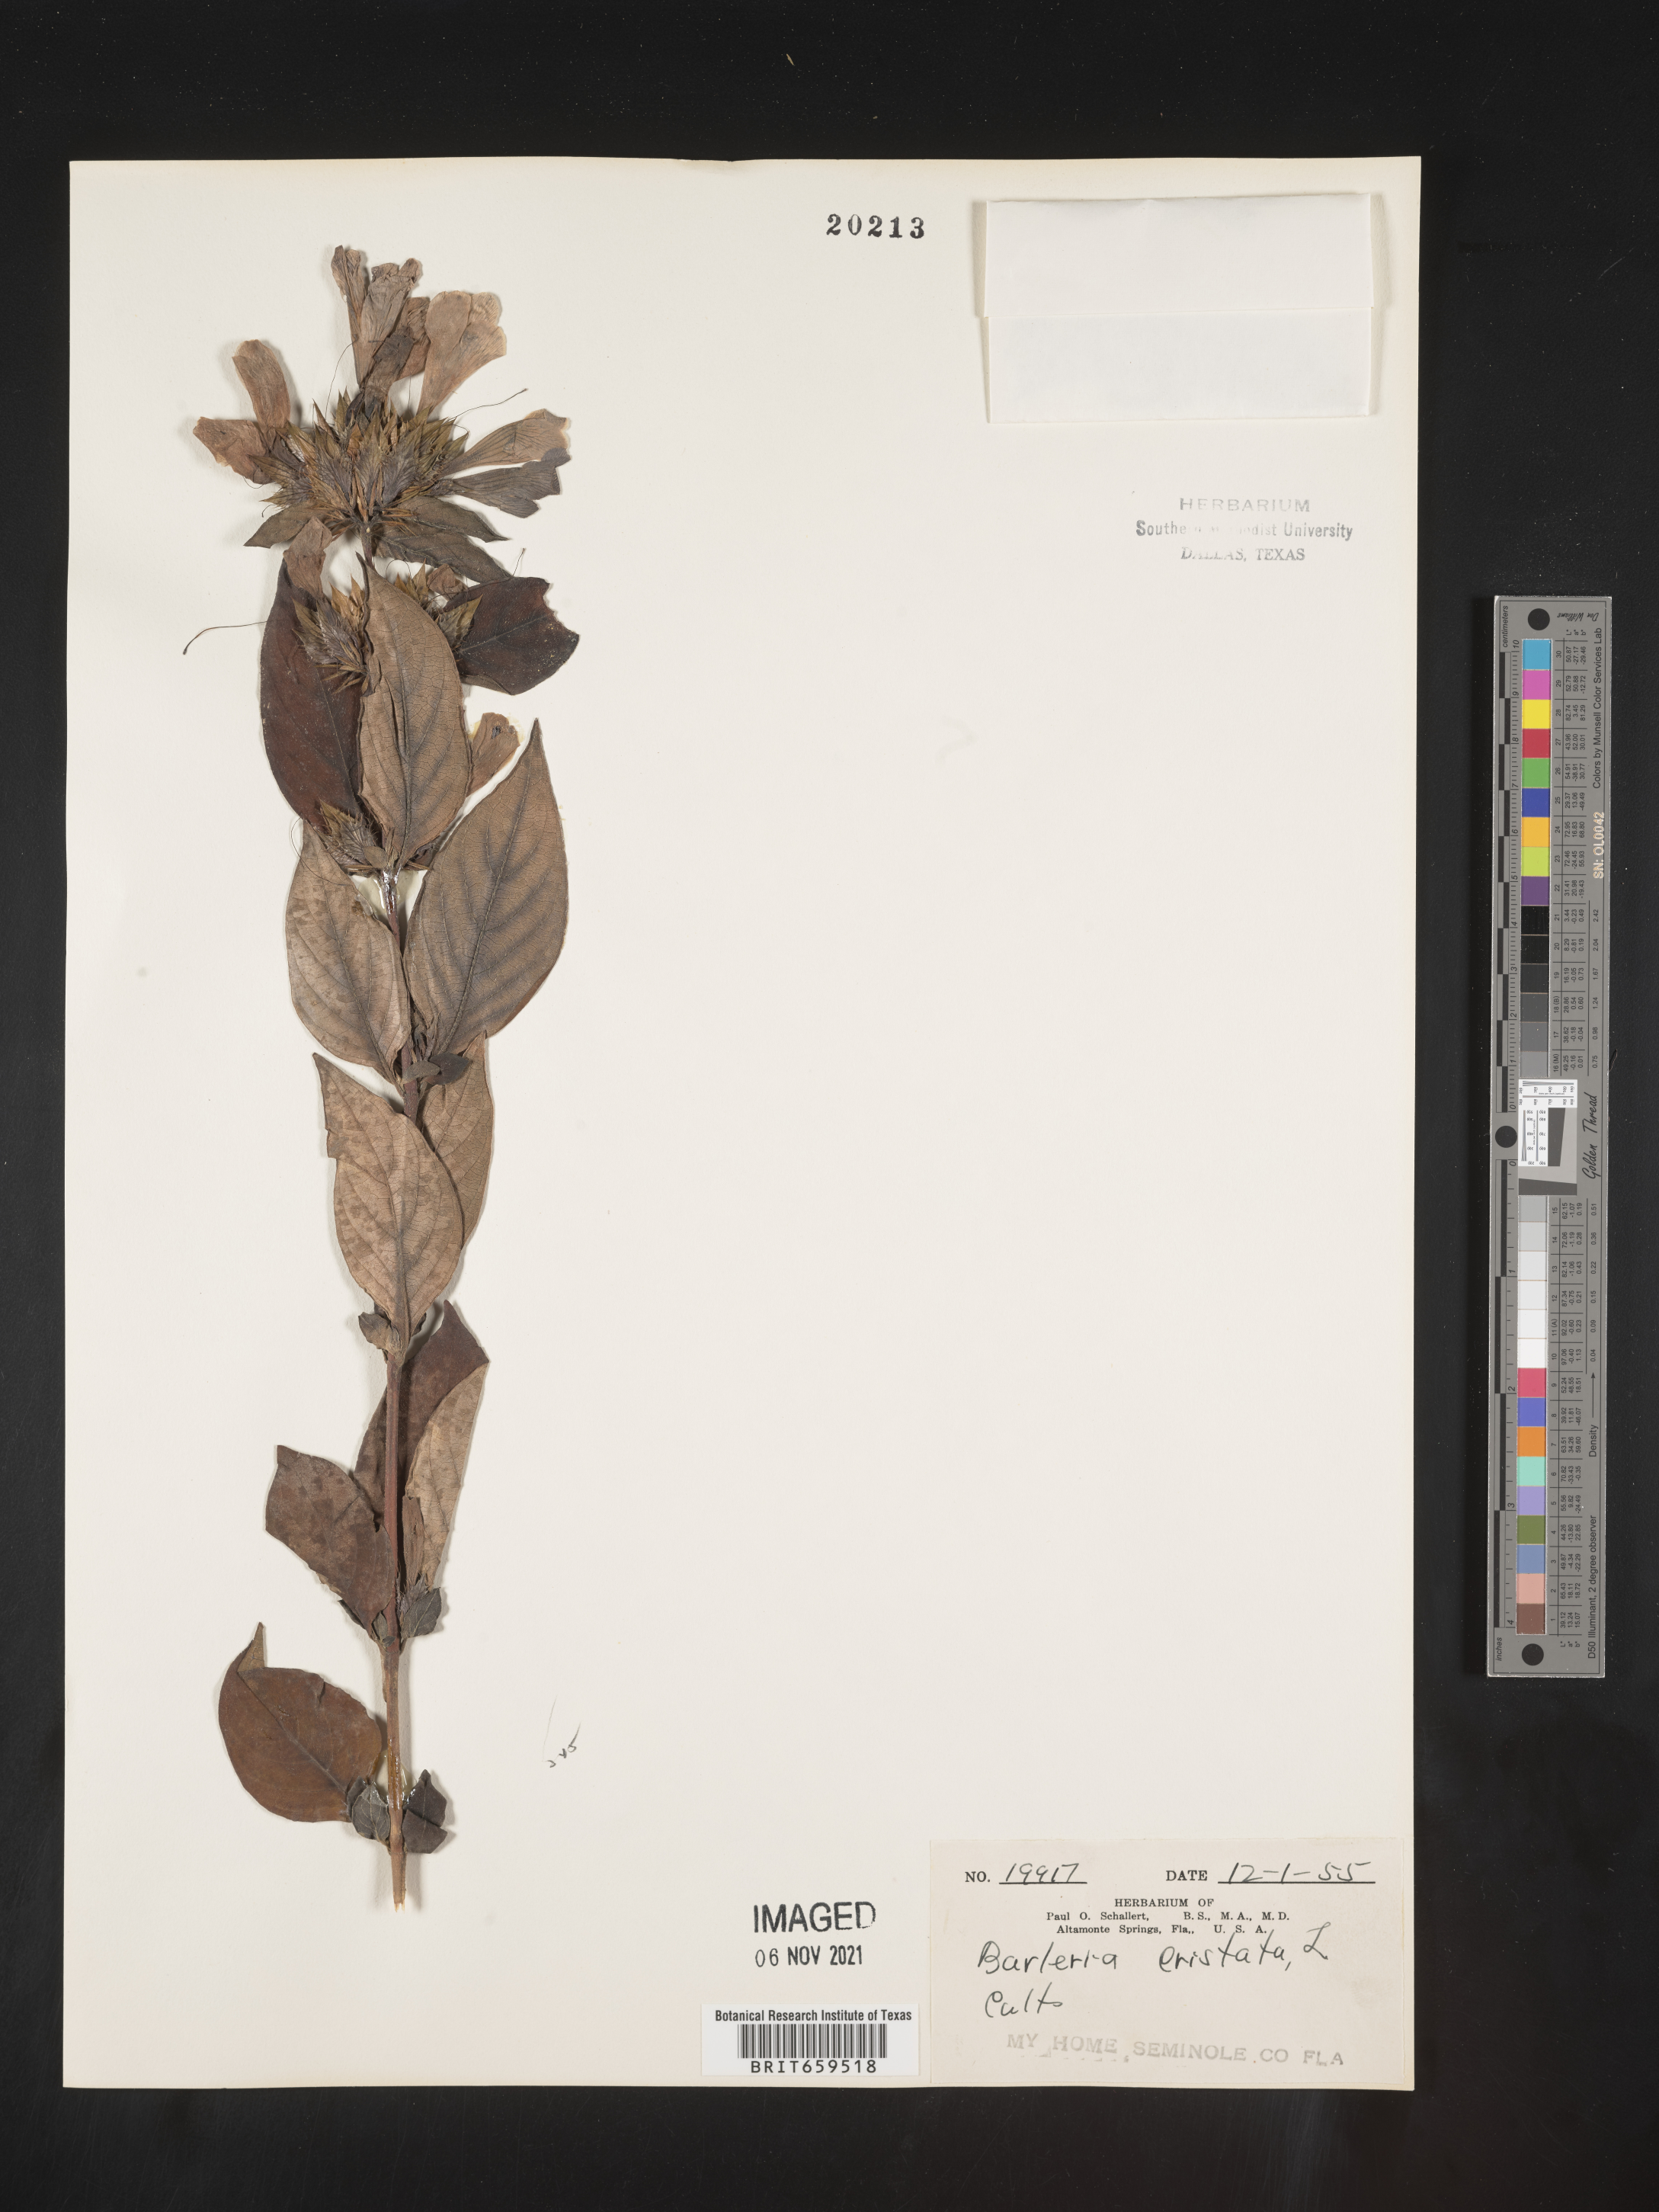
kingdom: Plantae
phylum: Tracheophyta
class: Magnoliopsida
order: Lamiales
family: Acanthaceae
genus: Barleria
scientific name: Barleria
